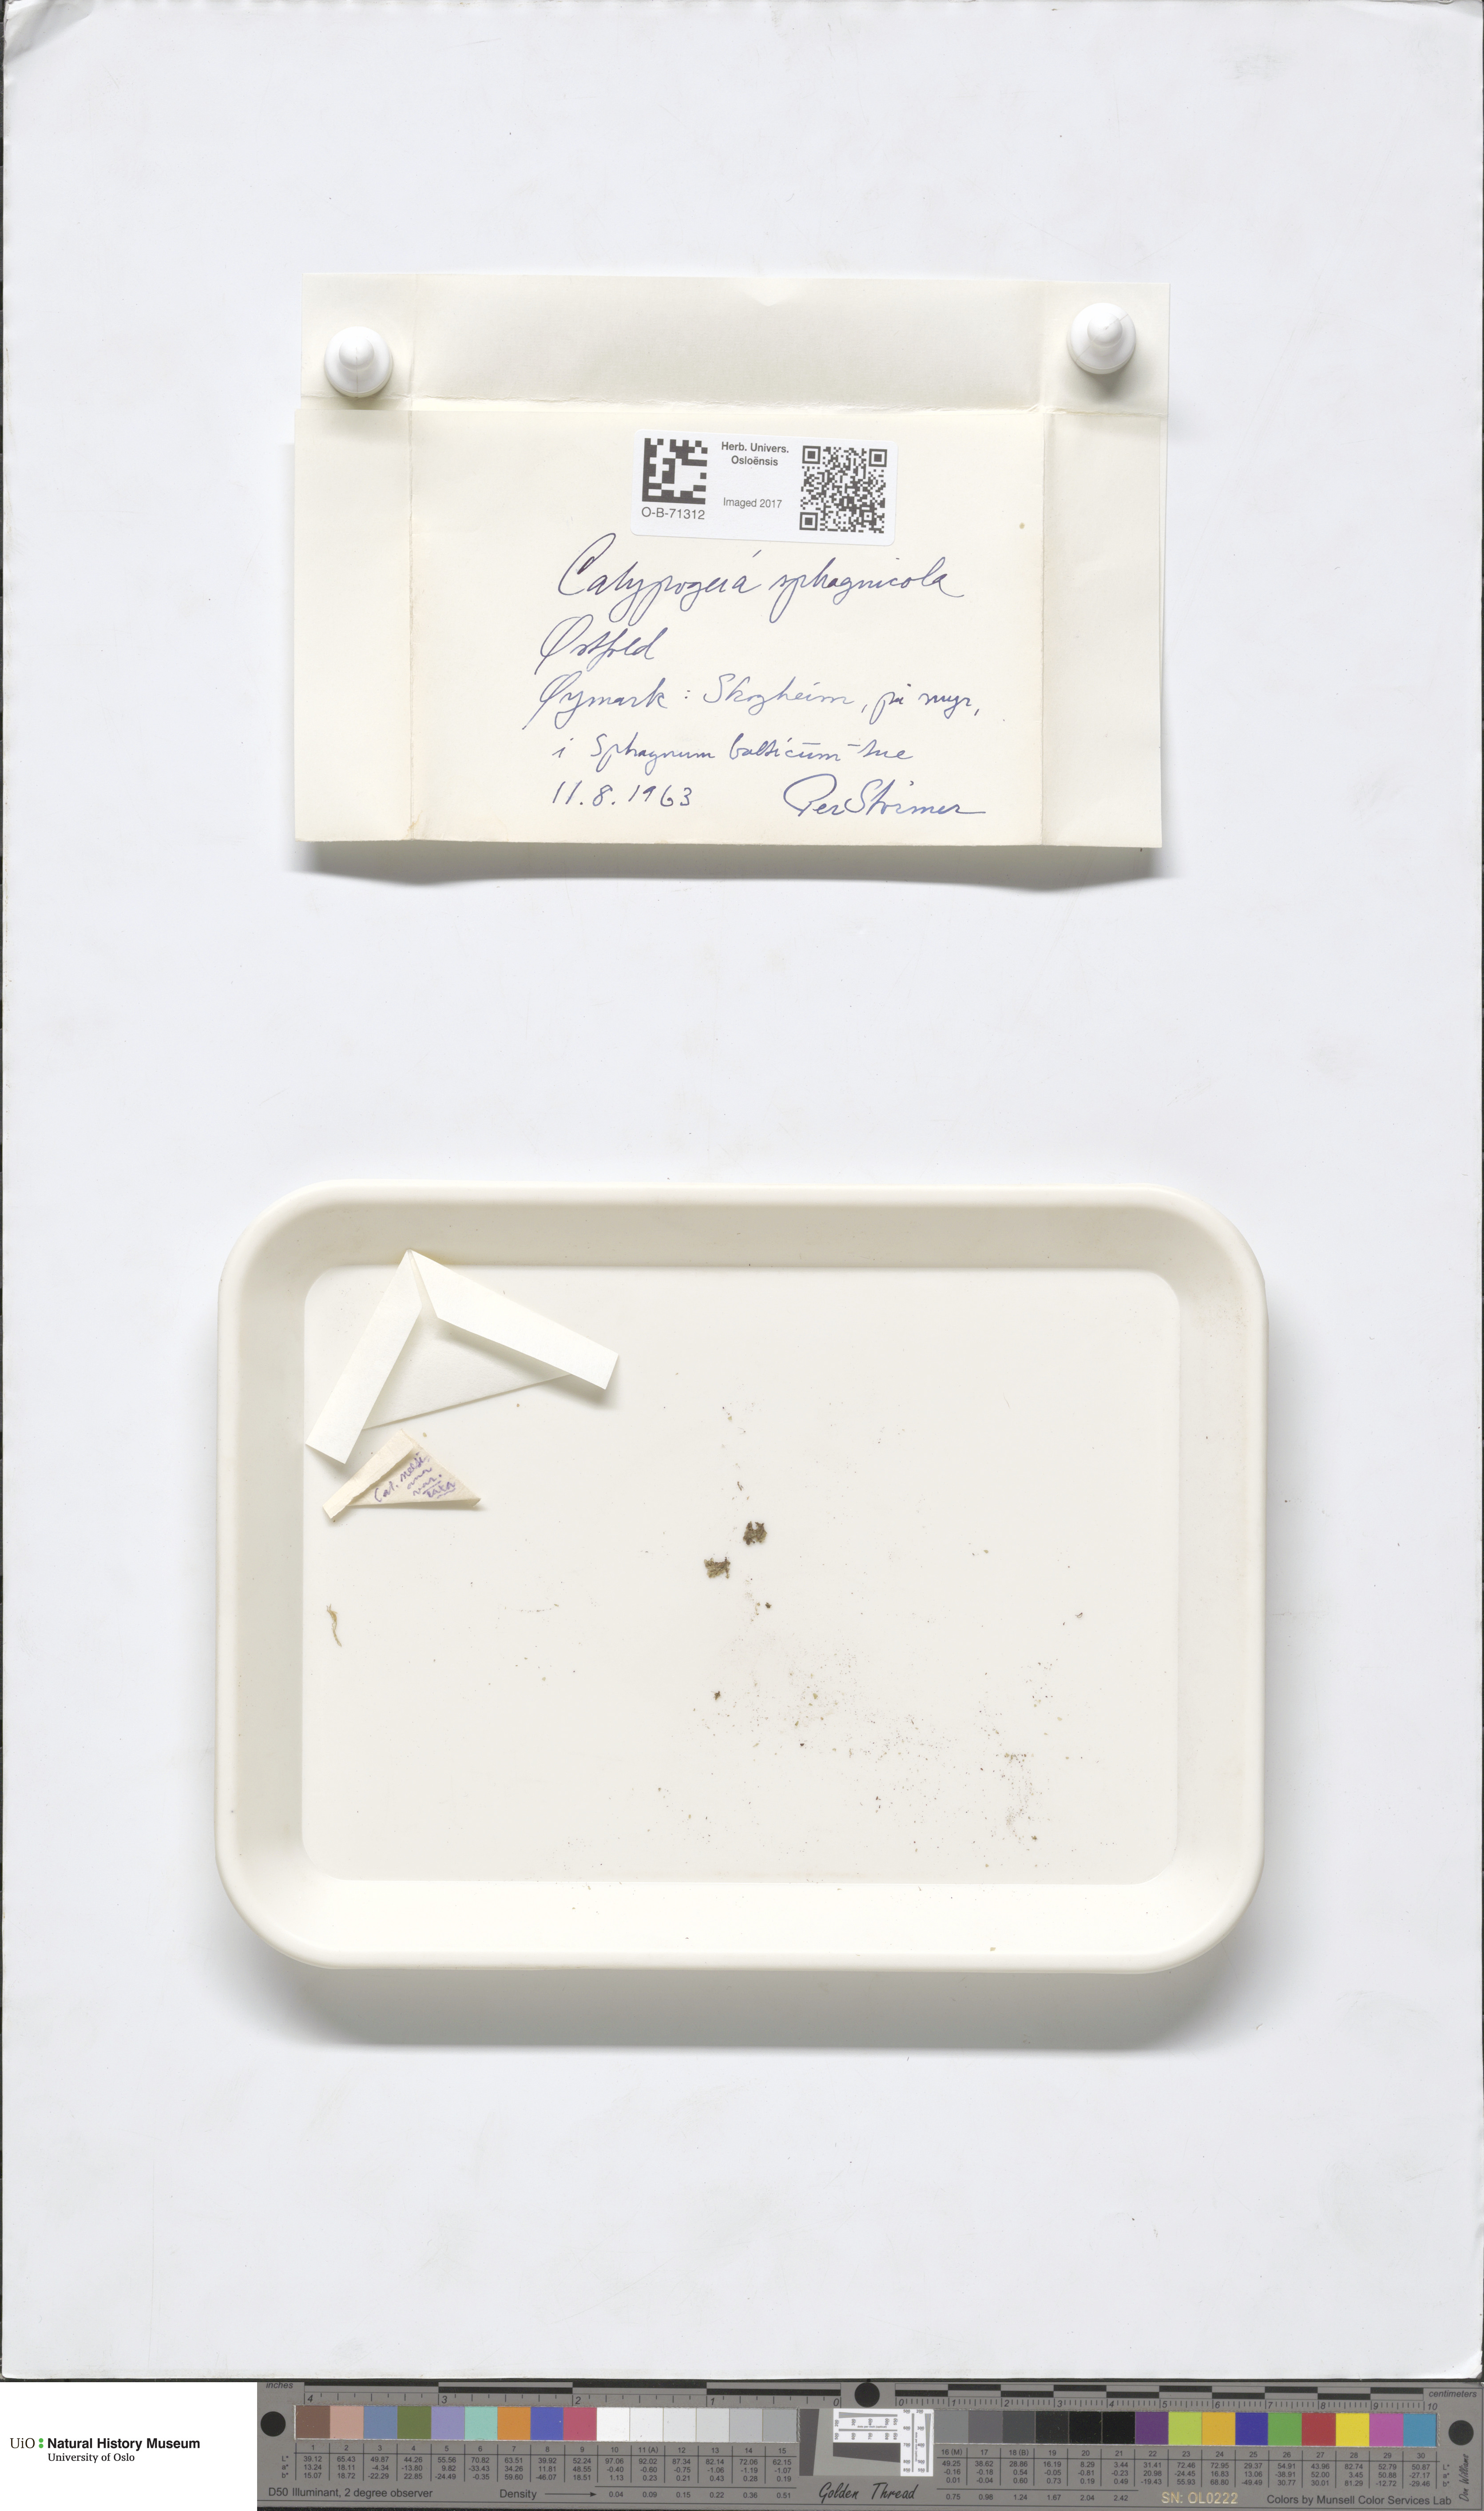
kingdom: Plantae
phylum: Marchantiophyta
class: Jungermanniopsida
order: Jungermanniales
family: Calypogeiaceae
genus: Calypogeia
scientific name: Calypogeia sphagnicola
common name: Bog pouchwort
